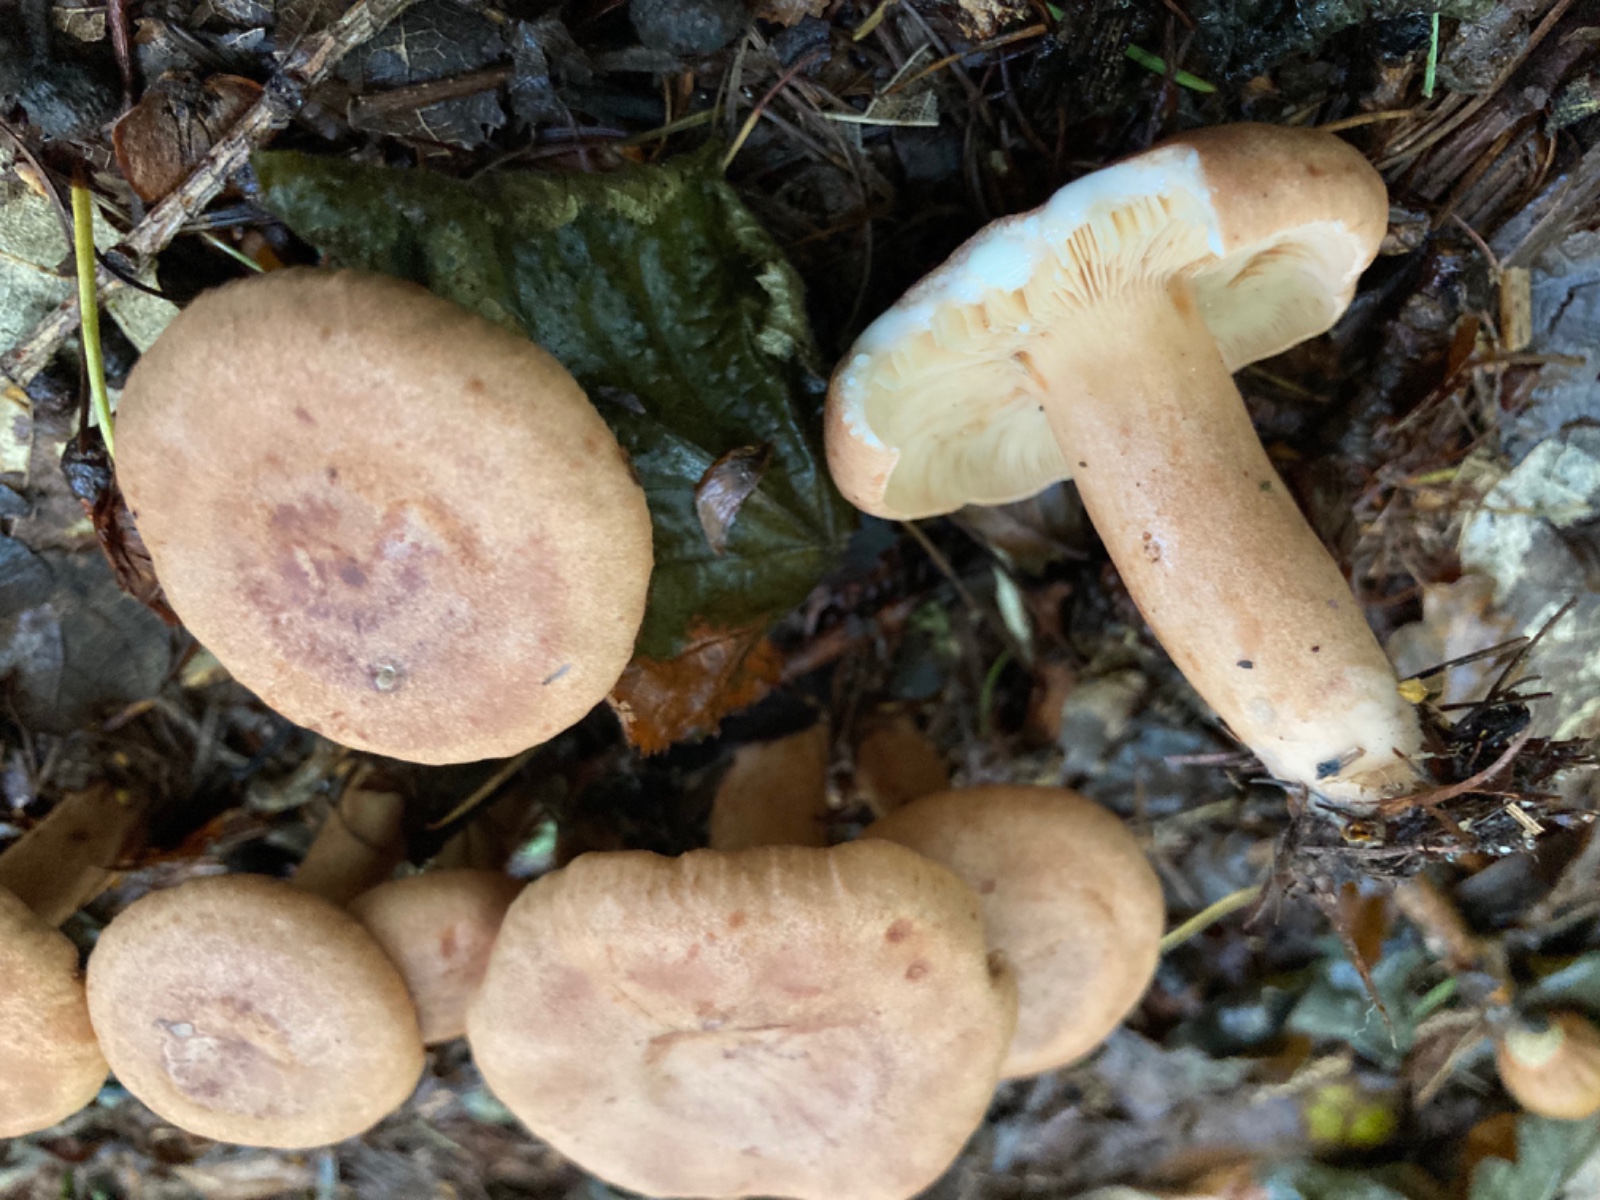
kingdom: Fungi
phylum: Basidiomycota
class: Agaricomycetes
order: Russulales
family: Russulaceae
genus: Lactarius
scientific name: Lactarius quietus
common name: ege-mælkehat
